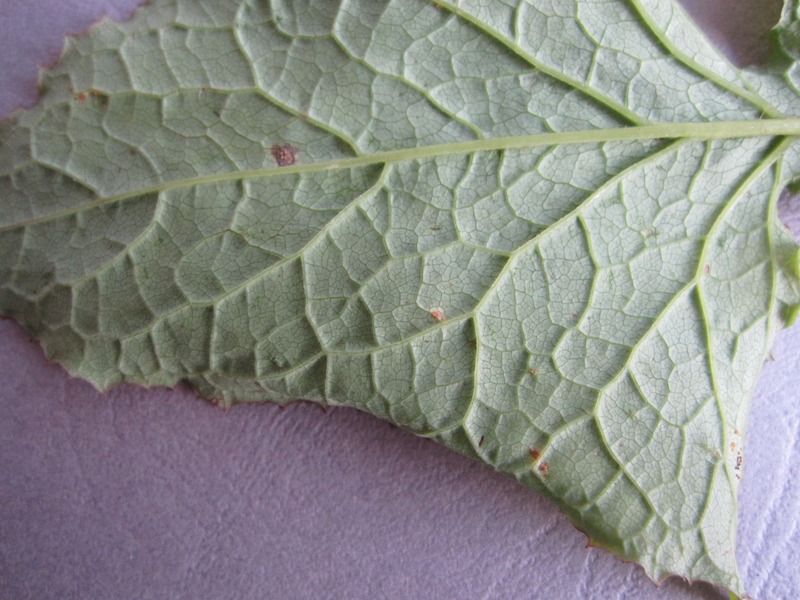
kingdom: Fungi
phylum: Basidiomycota
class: Pucciniomycetes
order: Pucciniales
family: Pucciniaceae
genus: Puccinia
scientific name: Puccinia mulgedii
